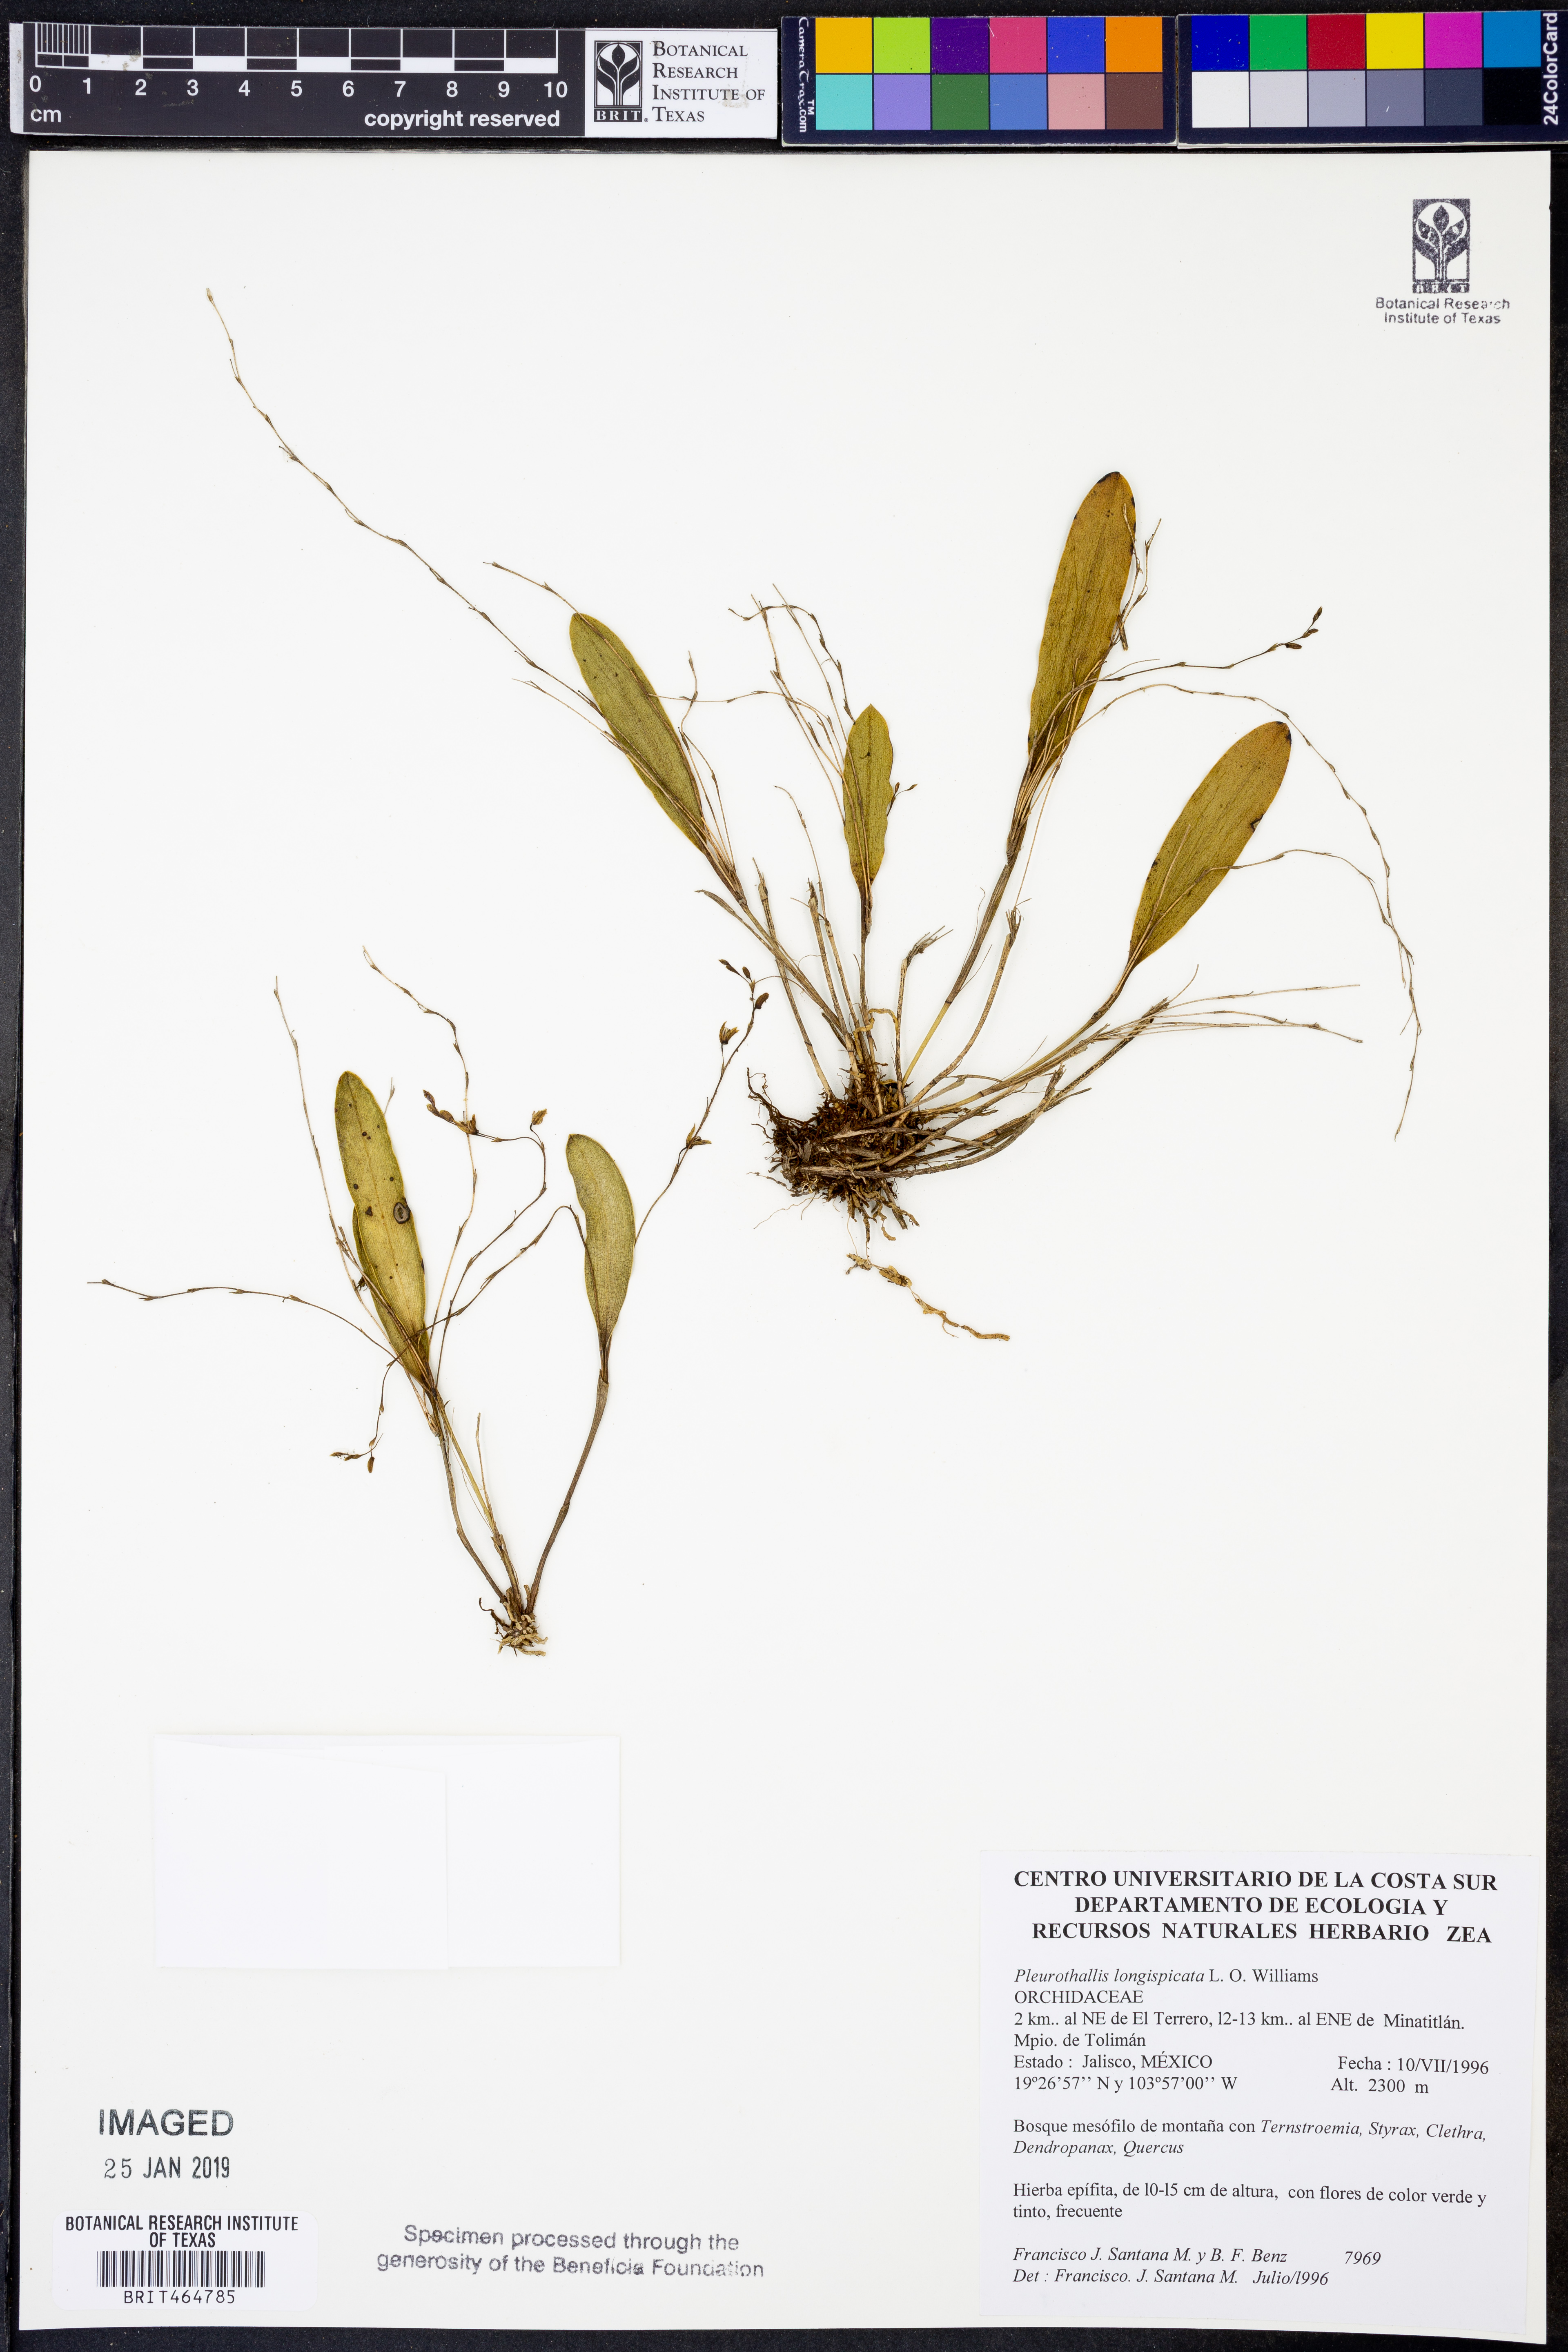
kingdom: Plantae
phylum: Tracheophyta
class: Liliopsida
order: Asparagales
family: Orchidaceae
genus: Stelis
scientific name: Stelis longispicata
